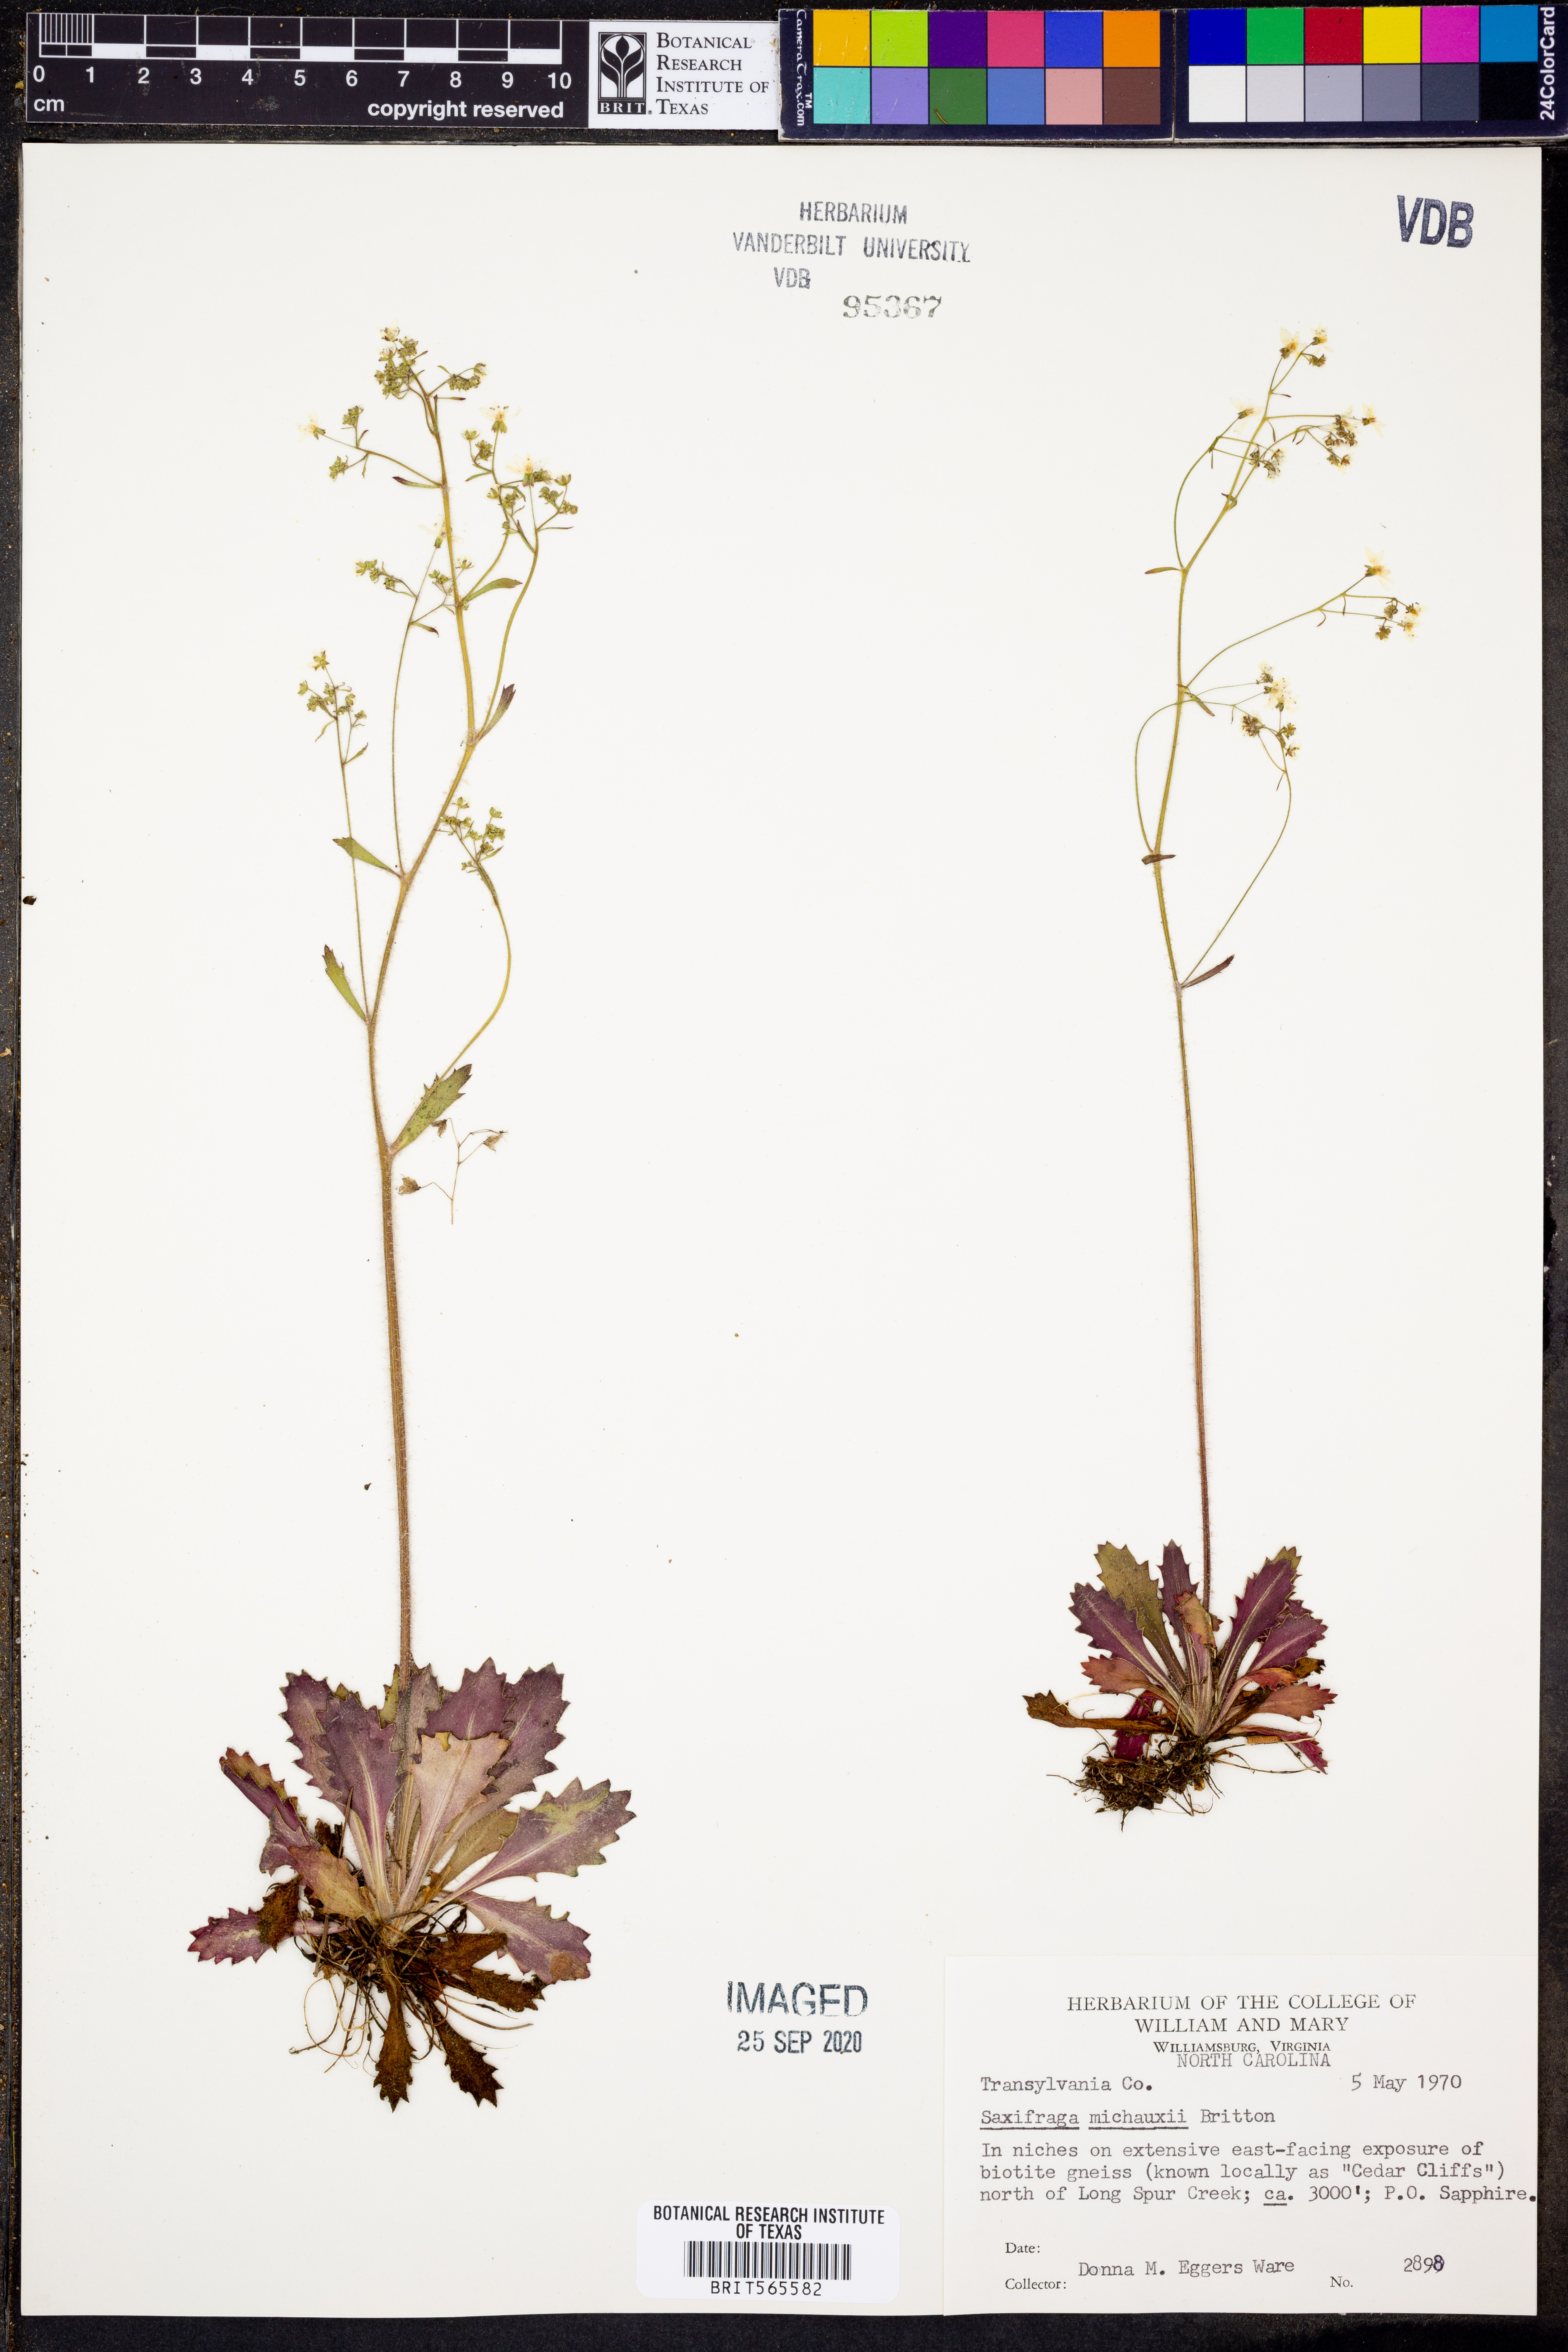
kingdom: Plantae
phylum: Tracheophyta
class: Magnoliopsida
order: Saxifragales
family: Saxifragaceae
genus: Micranthes
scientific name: Micranthes petiolaris
